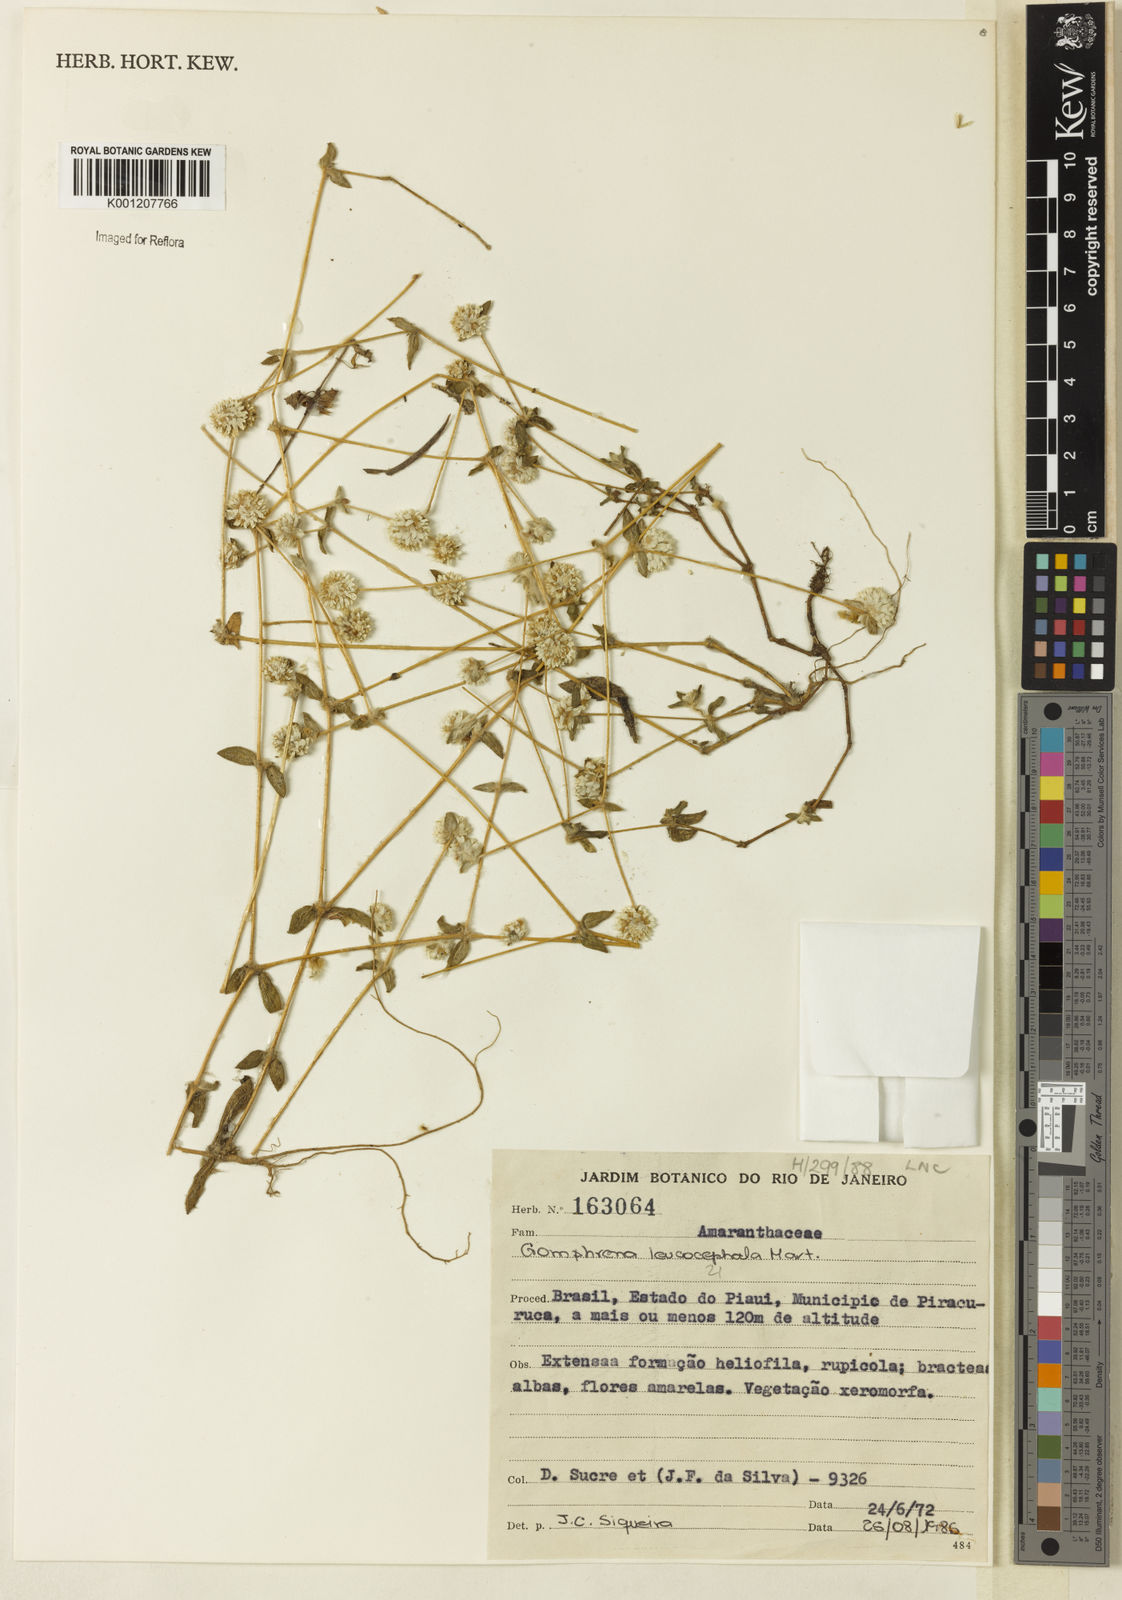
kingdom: Plantae
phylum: Tracheophyta
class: Magnoliopsida
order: Caryophyllales
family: Amaranthaceae
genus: Gomphrena
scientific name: Gomphrena leucocephala
